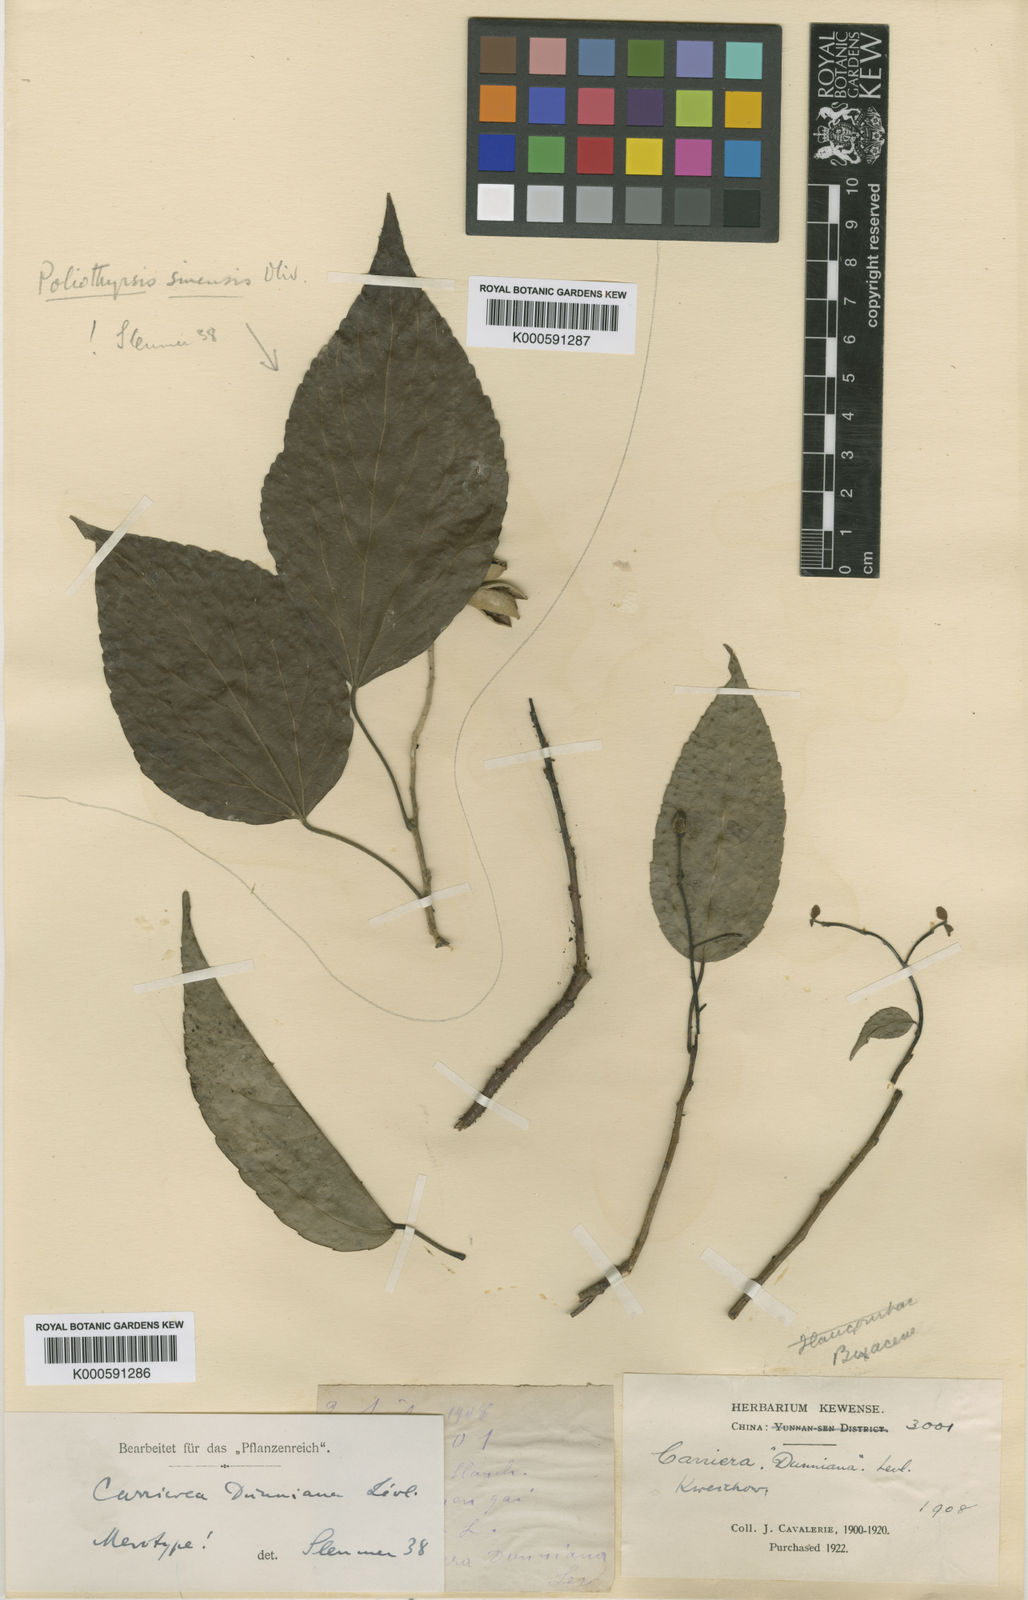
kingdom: Plantae
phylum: Tracheophyta
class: Magnoliopsida
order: Malpighiales
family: Salicaceae
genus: Carrierea
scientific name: Carrierea
